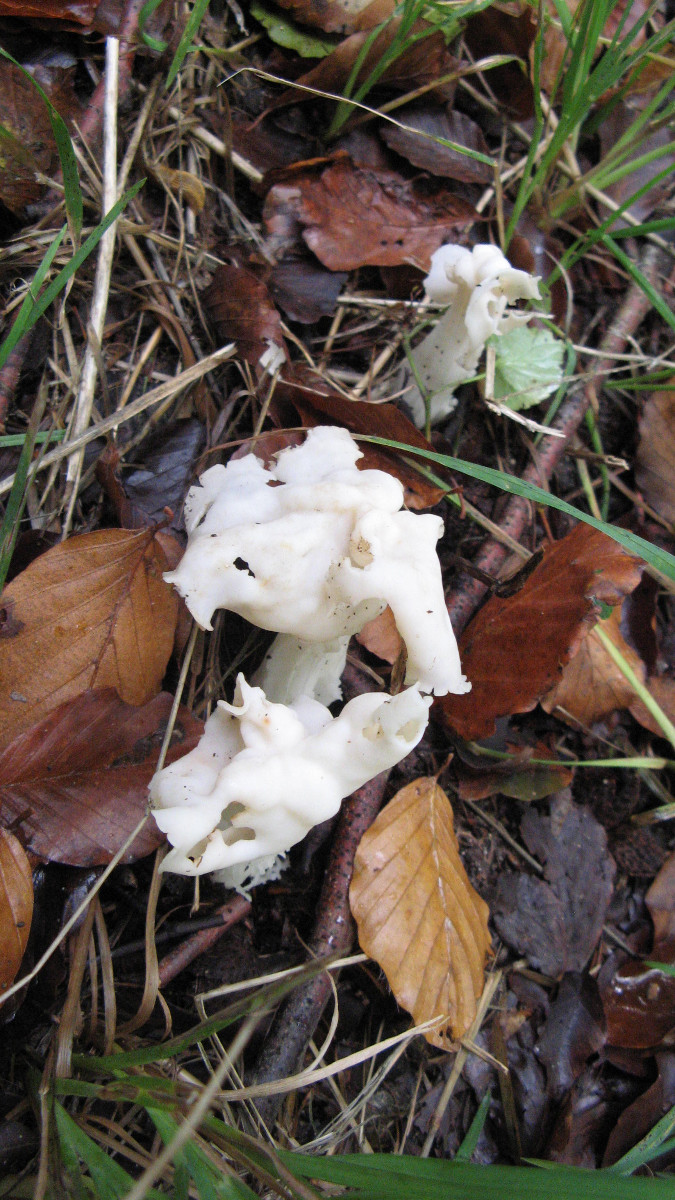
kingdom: Fungi
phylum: Ascomycota
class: Pezizomycetes
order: Pezizales
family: Helvellaceae
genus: Helvella
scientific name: Helvella crispa
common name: kruset foldhat
